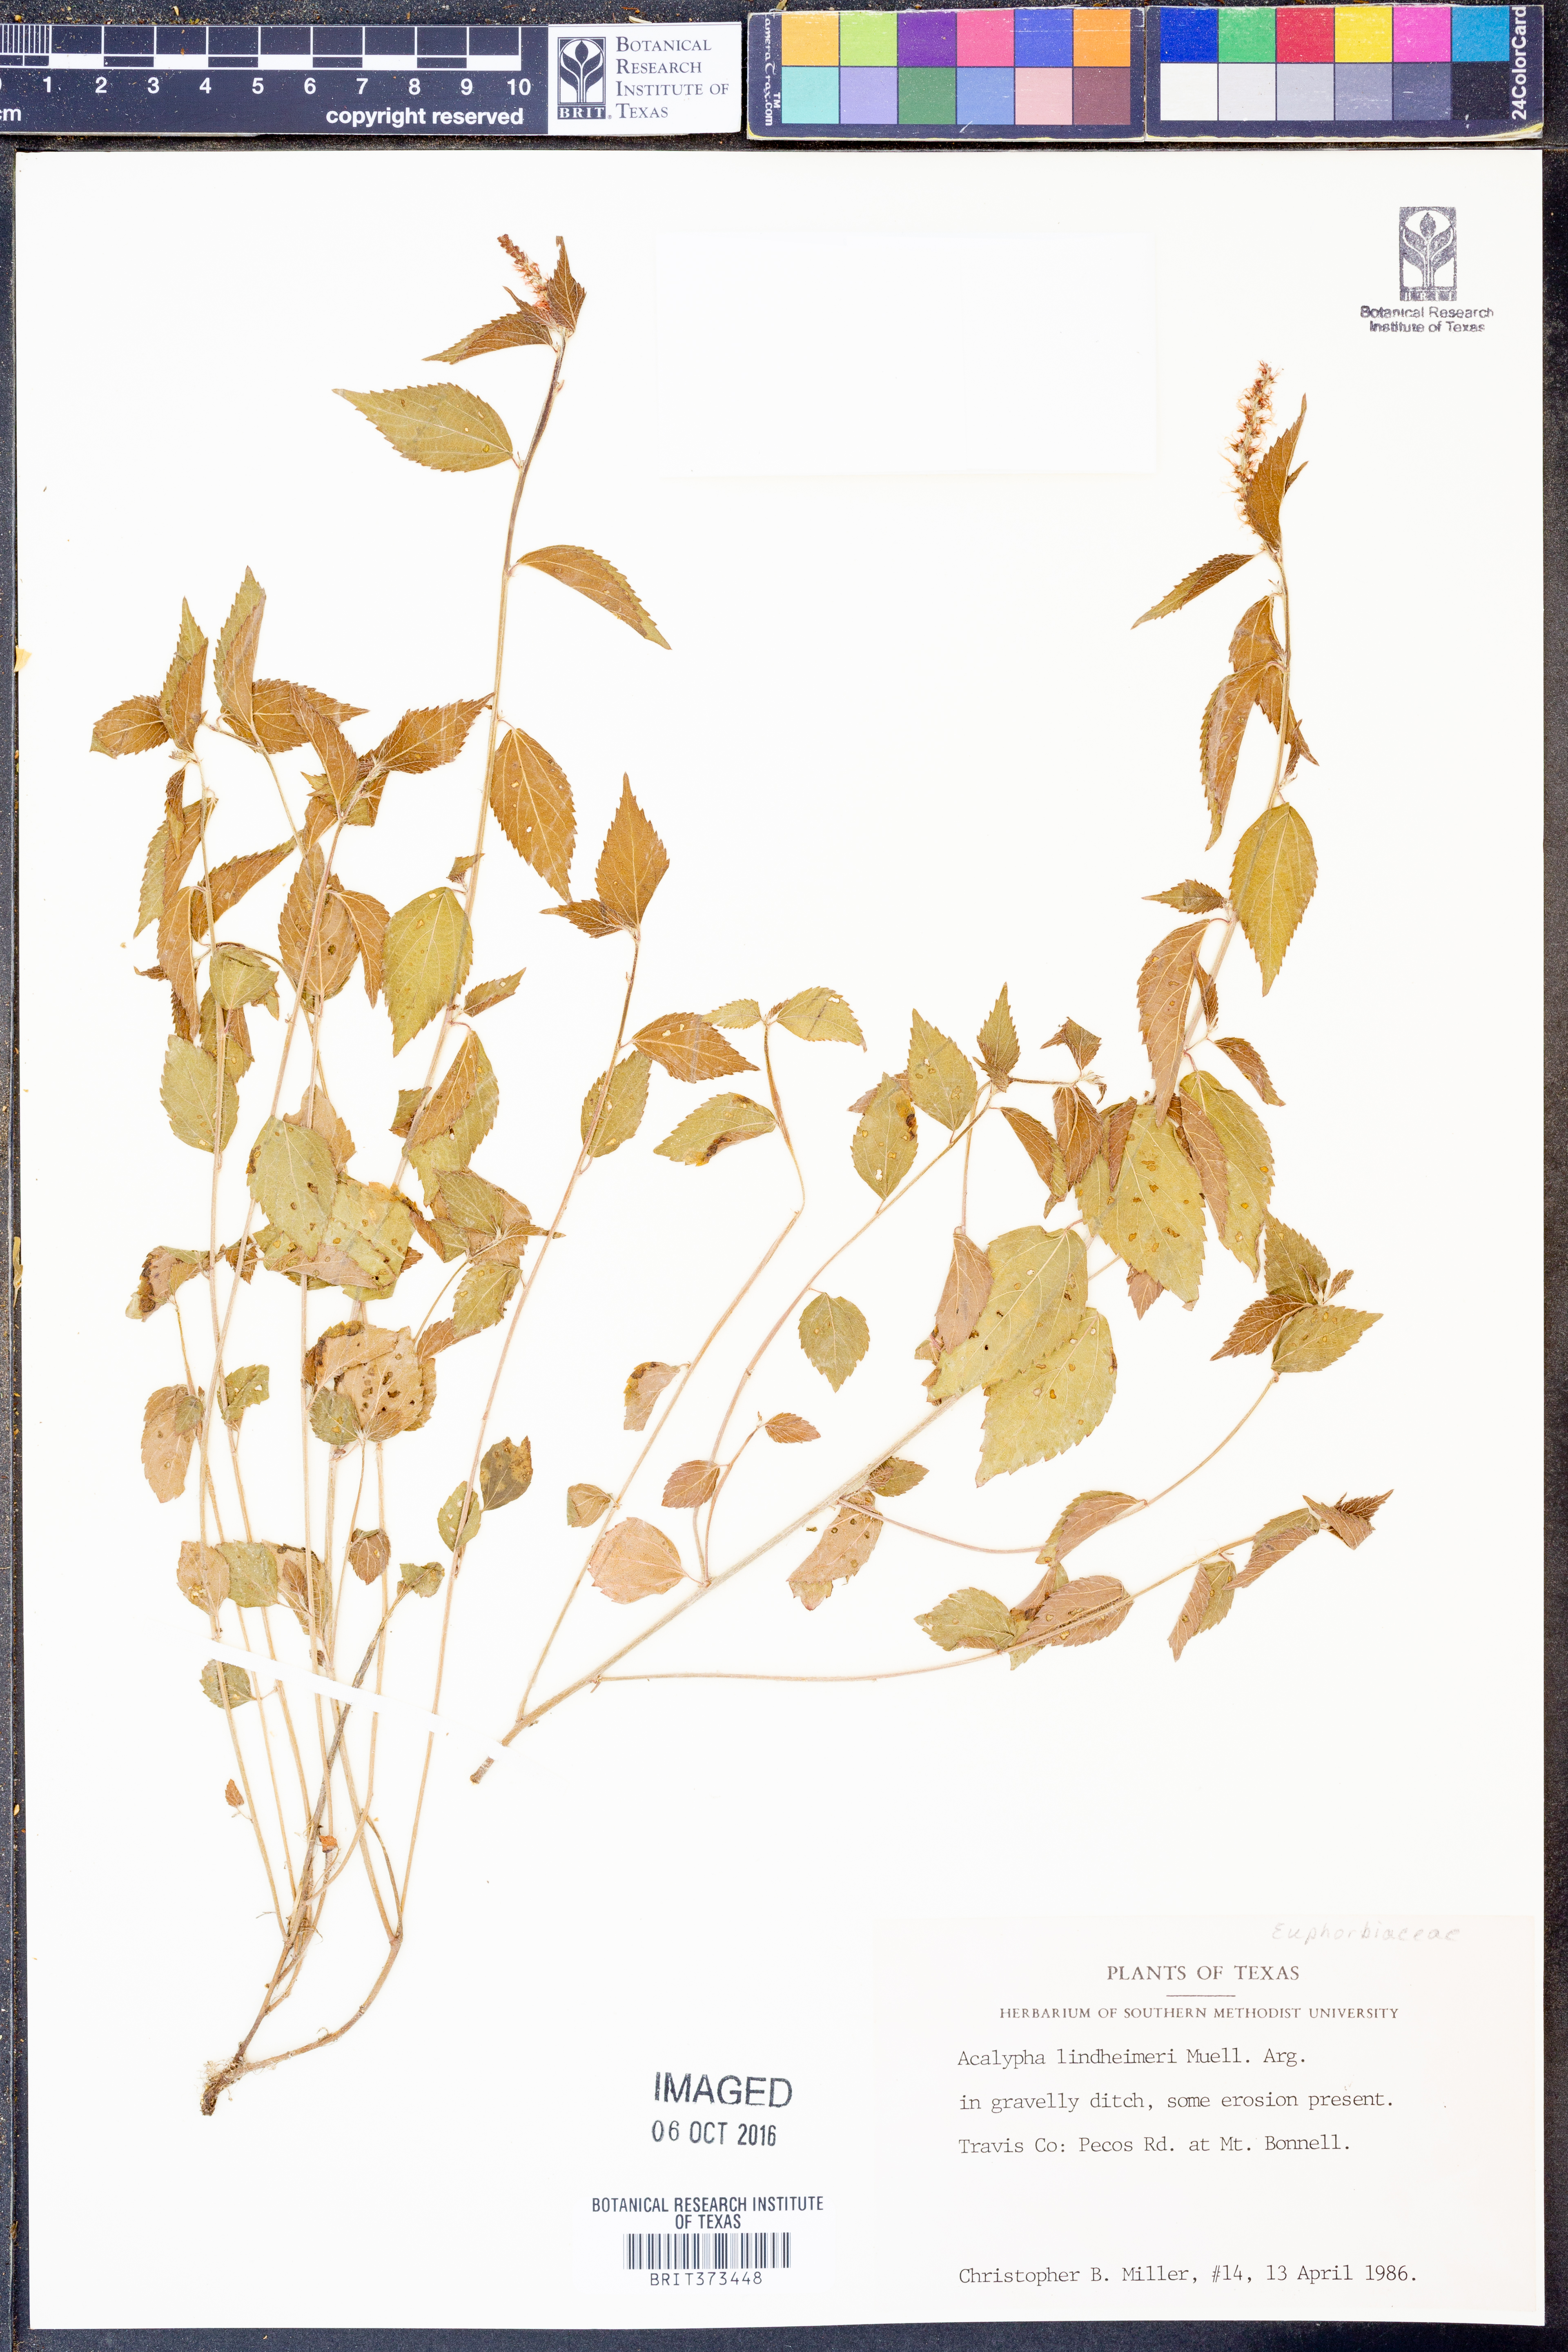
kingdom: Plantae
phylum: Tracheophyta
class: Magnoliopsida
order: Malpighiales
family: Euphorbiaceae
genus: Acalypha
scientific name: Acalypha phleoides
